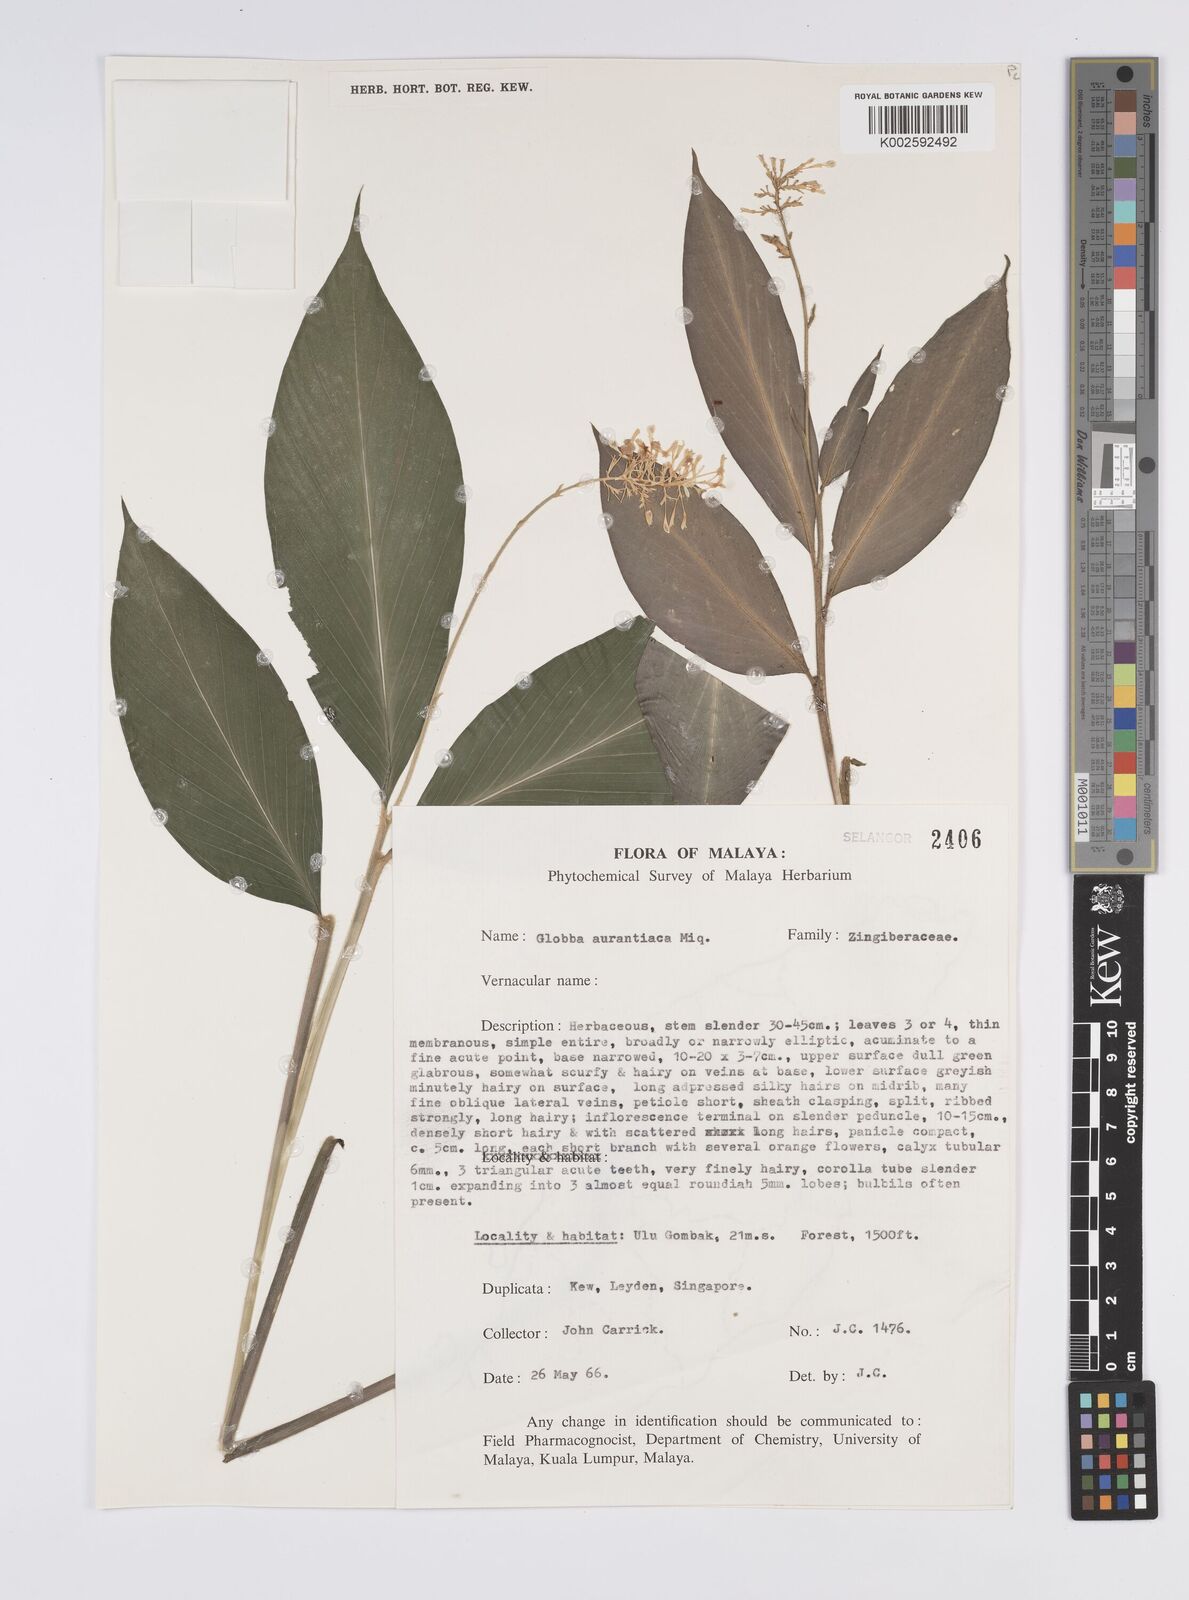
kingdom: Plantae
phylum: Tracheophyta
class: Liliopsida
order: Zingiberales
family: Zingiberaceae
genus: Globba
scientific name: Globba aurantiaca
